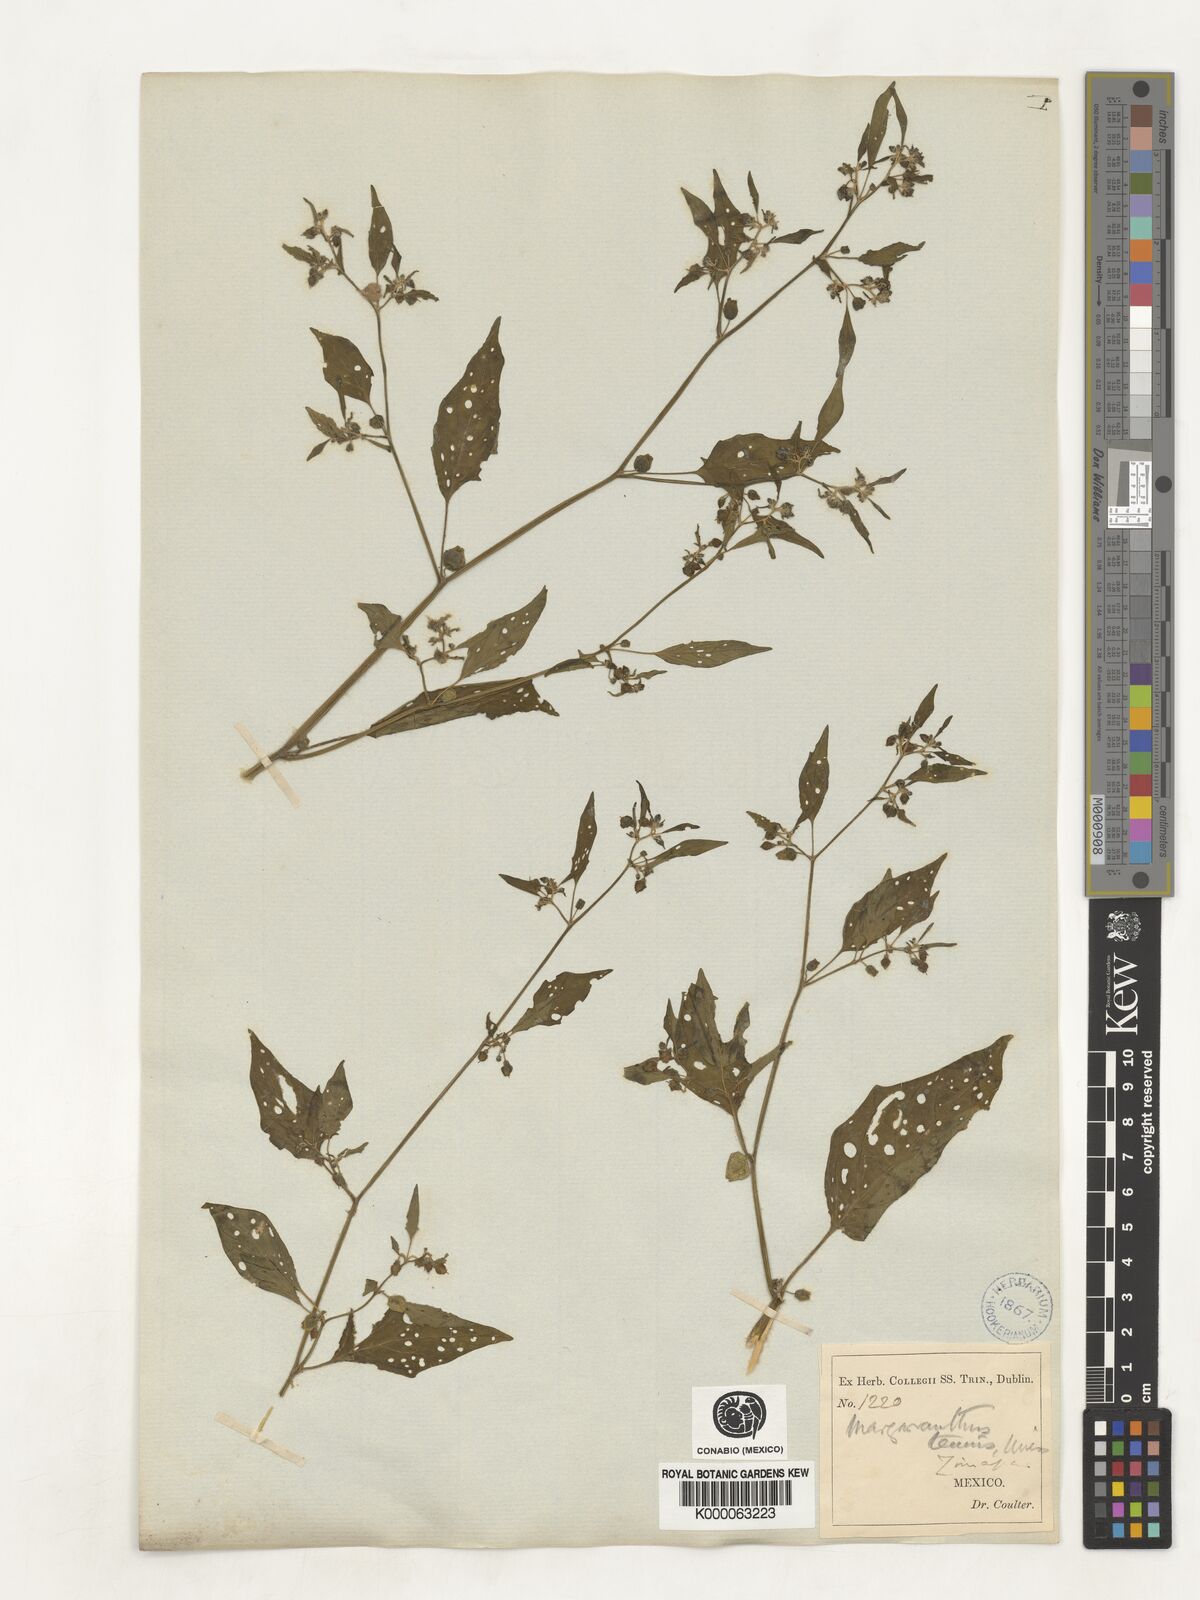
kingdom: Plantae
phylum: Tracheophyta
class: Magnoliopsida
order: Solanales
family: Solanaceae
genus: Physalis
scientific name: Physalis solanacea
